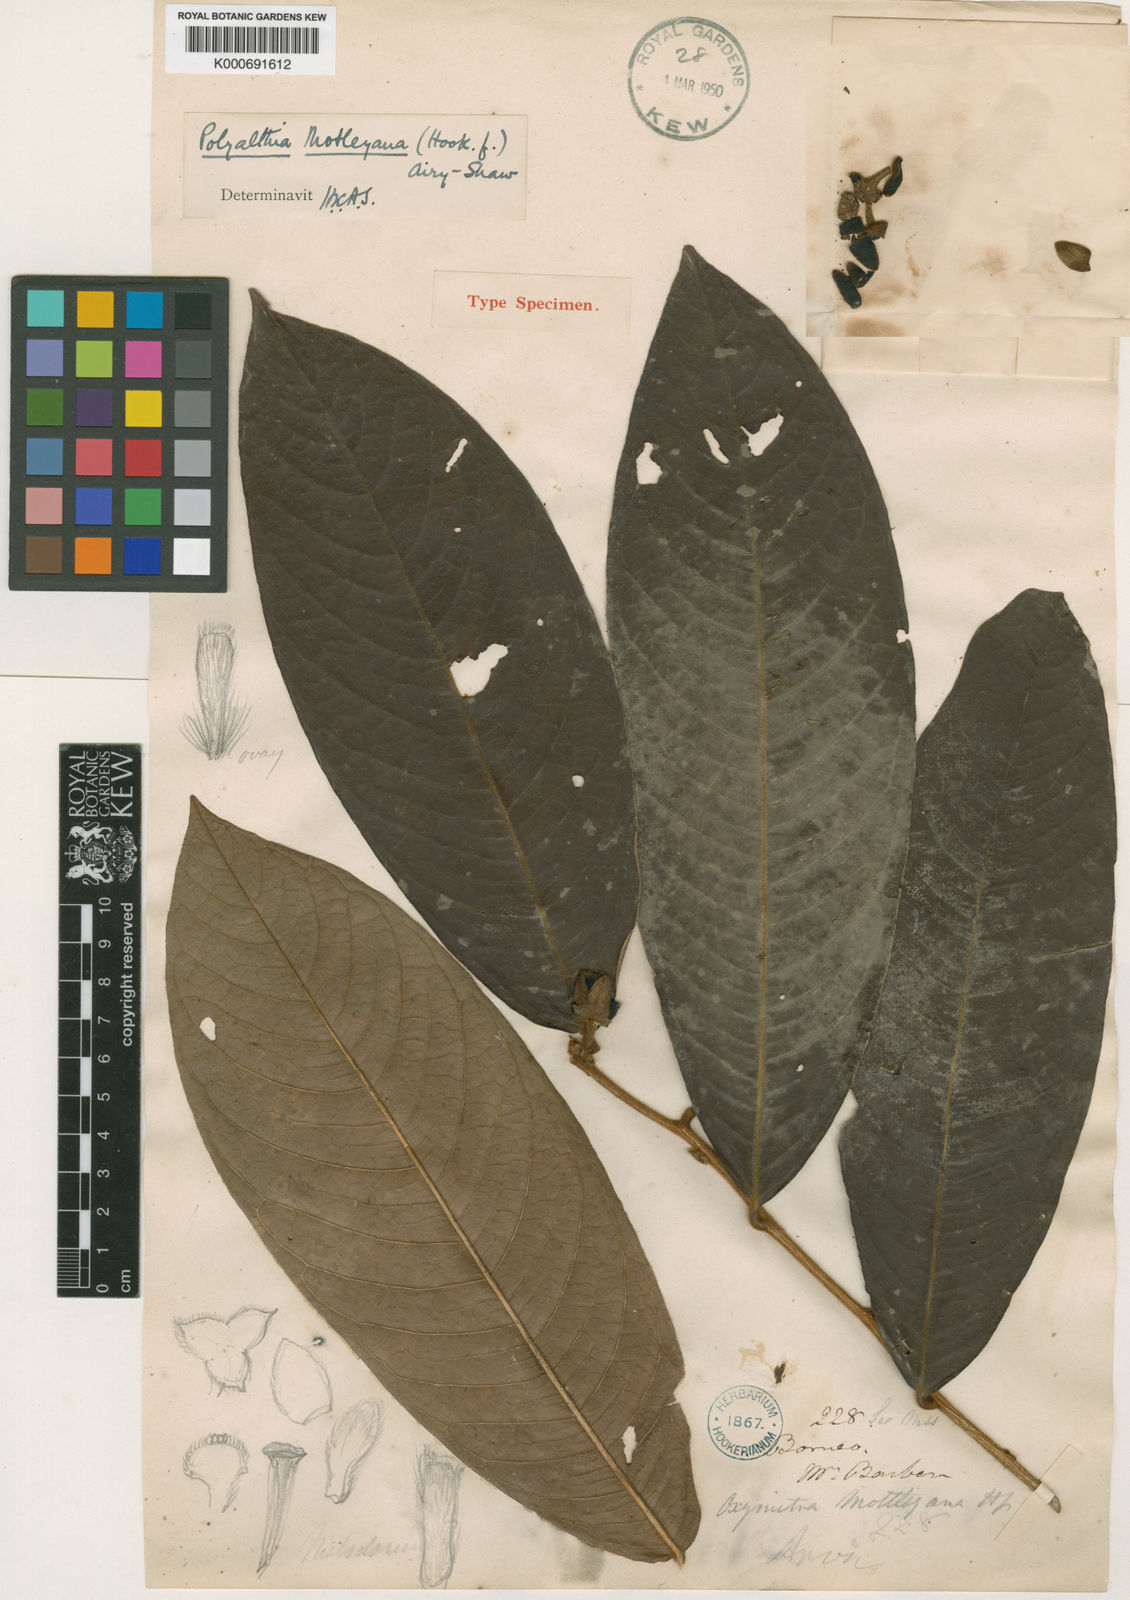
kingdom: Plantae
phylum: Tracheophyta
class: Magnoliopsida
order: Magnoliales
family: Annonaceae
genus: Polyalthia
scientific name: Polyalthia motleyana
